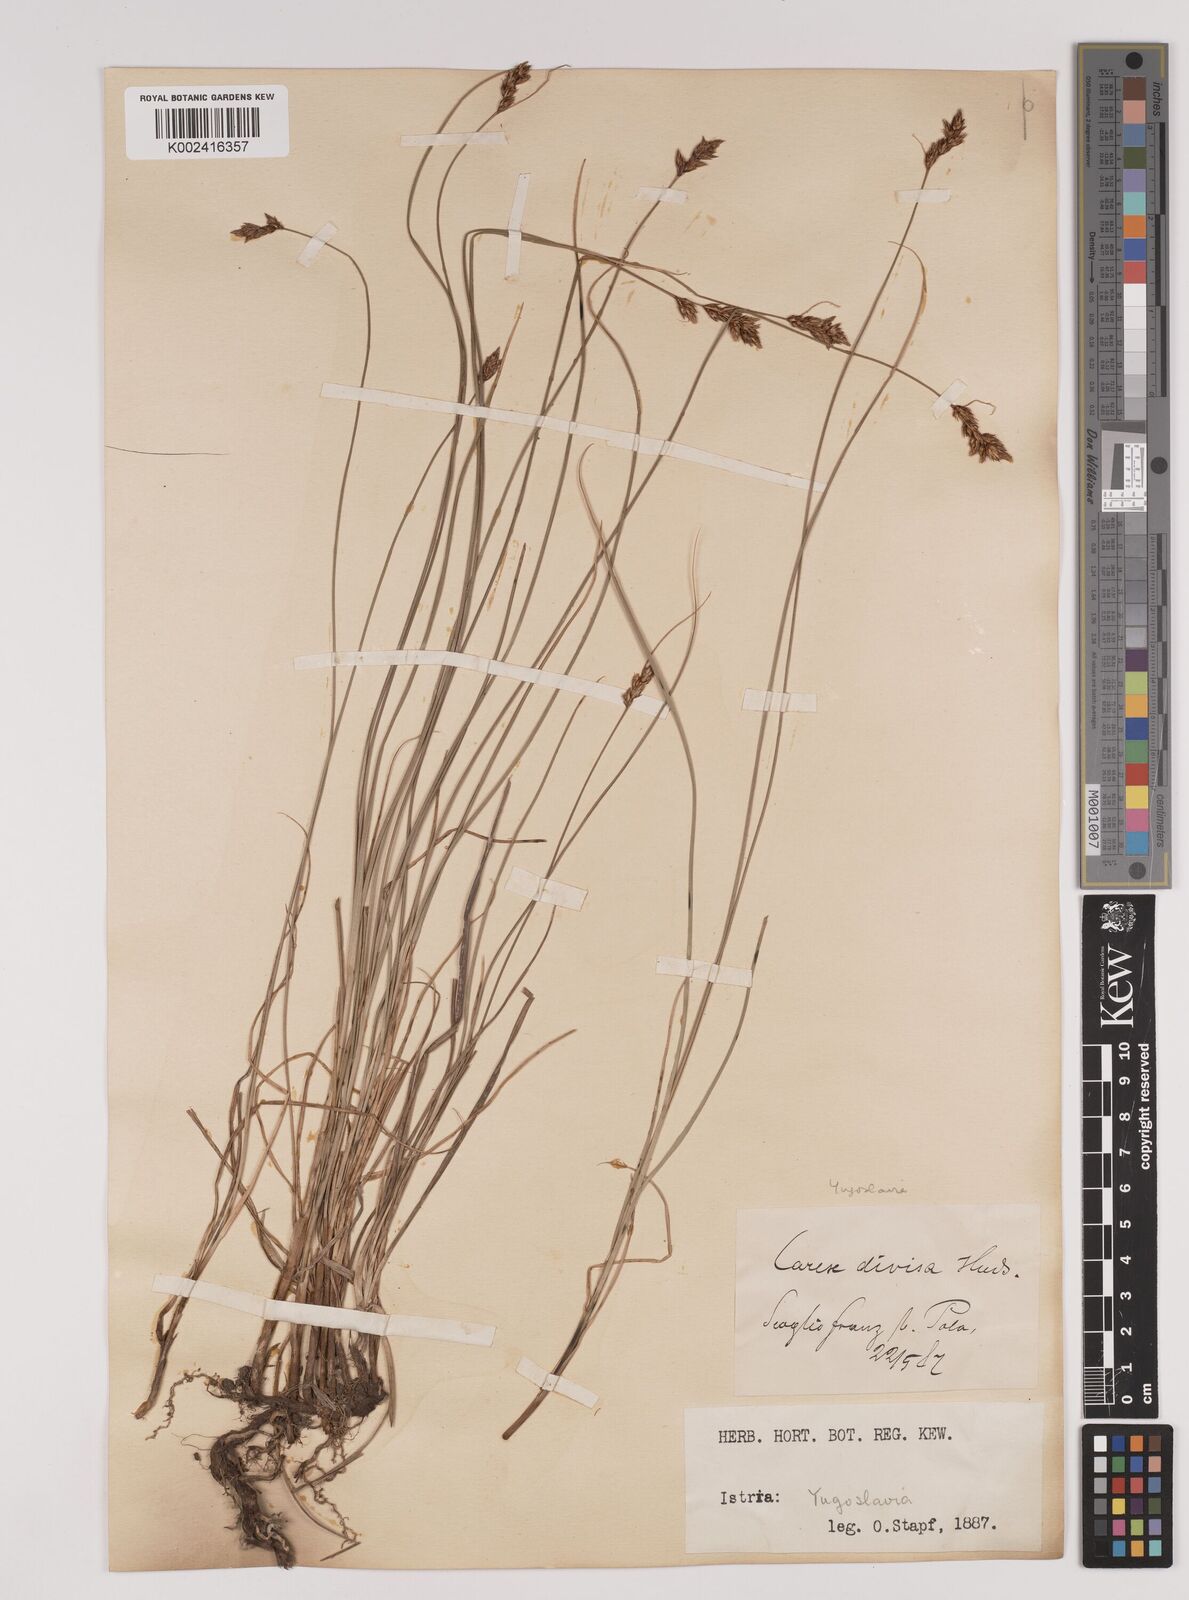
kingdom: Plantae
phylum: Tracheophyta
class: Liliopsida
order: Poales
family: Cyperaceae
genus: Carex
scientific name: Carex divisa
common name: Divided sedge
